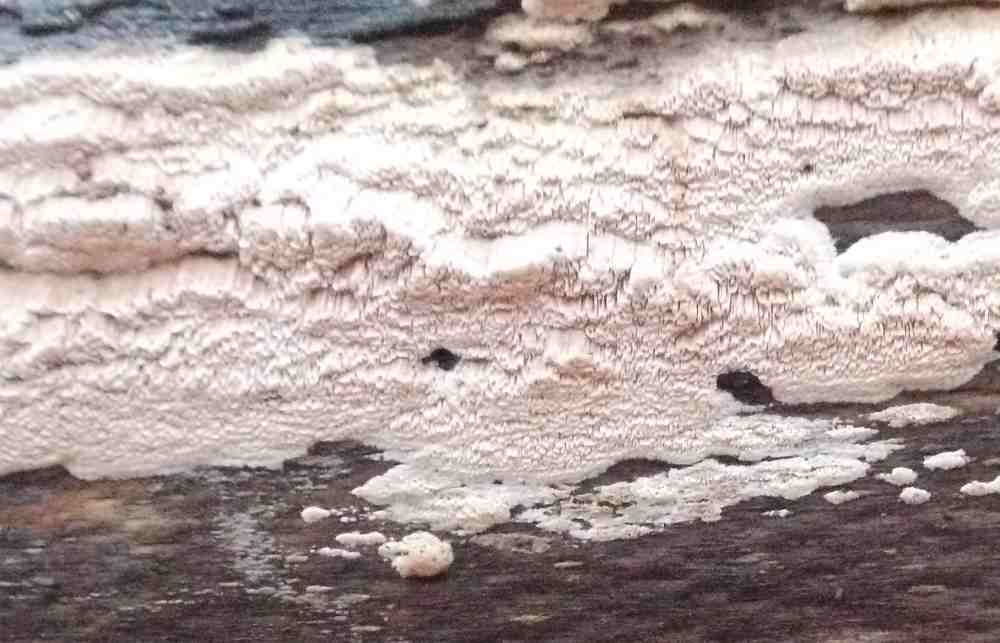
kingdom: Fungi
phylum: Basidiomycota
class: Agaricomycetes
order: Polyporales
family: Meruliaceae
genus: Mycoacia
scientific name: Mycoacia gilvescens
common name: rosa pastelporesvamp
